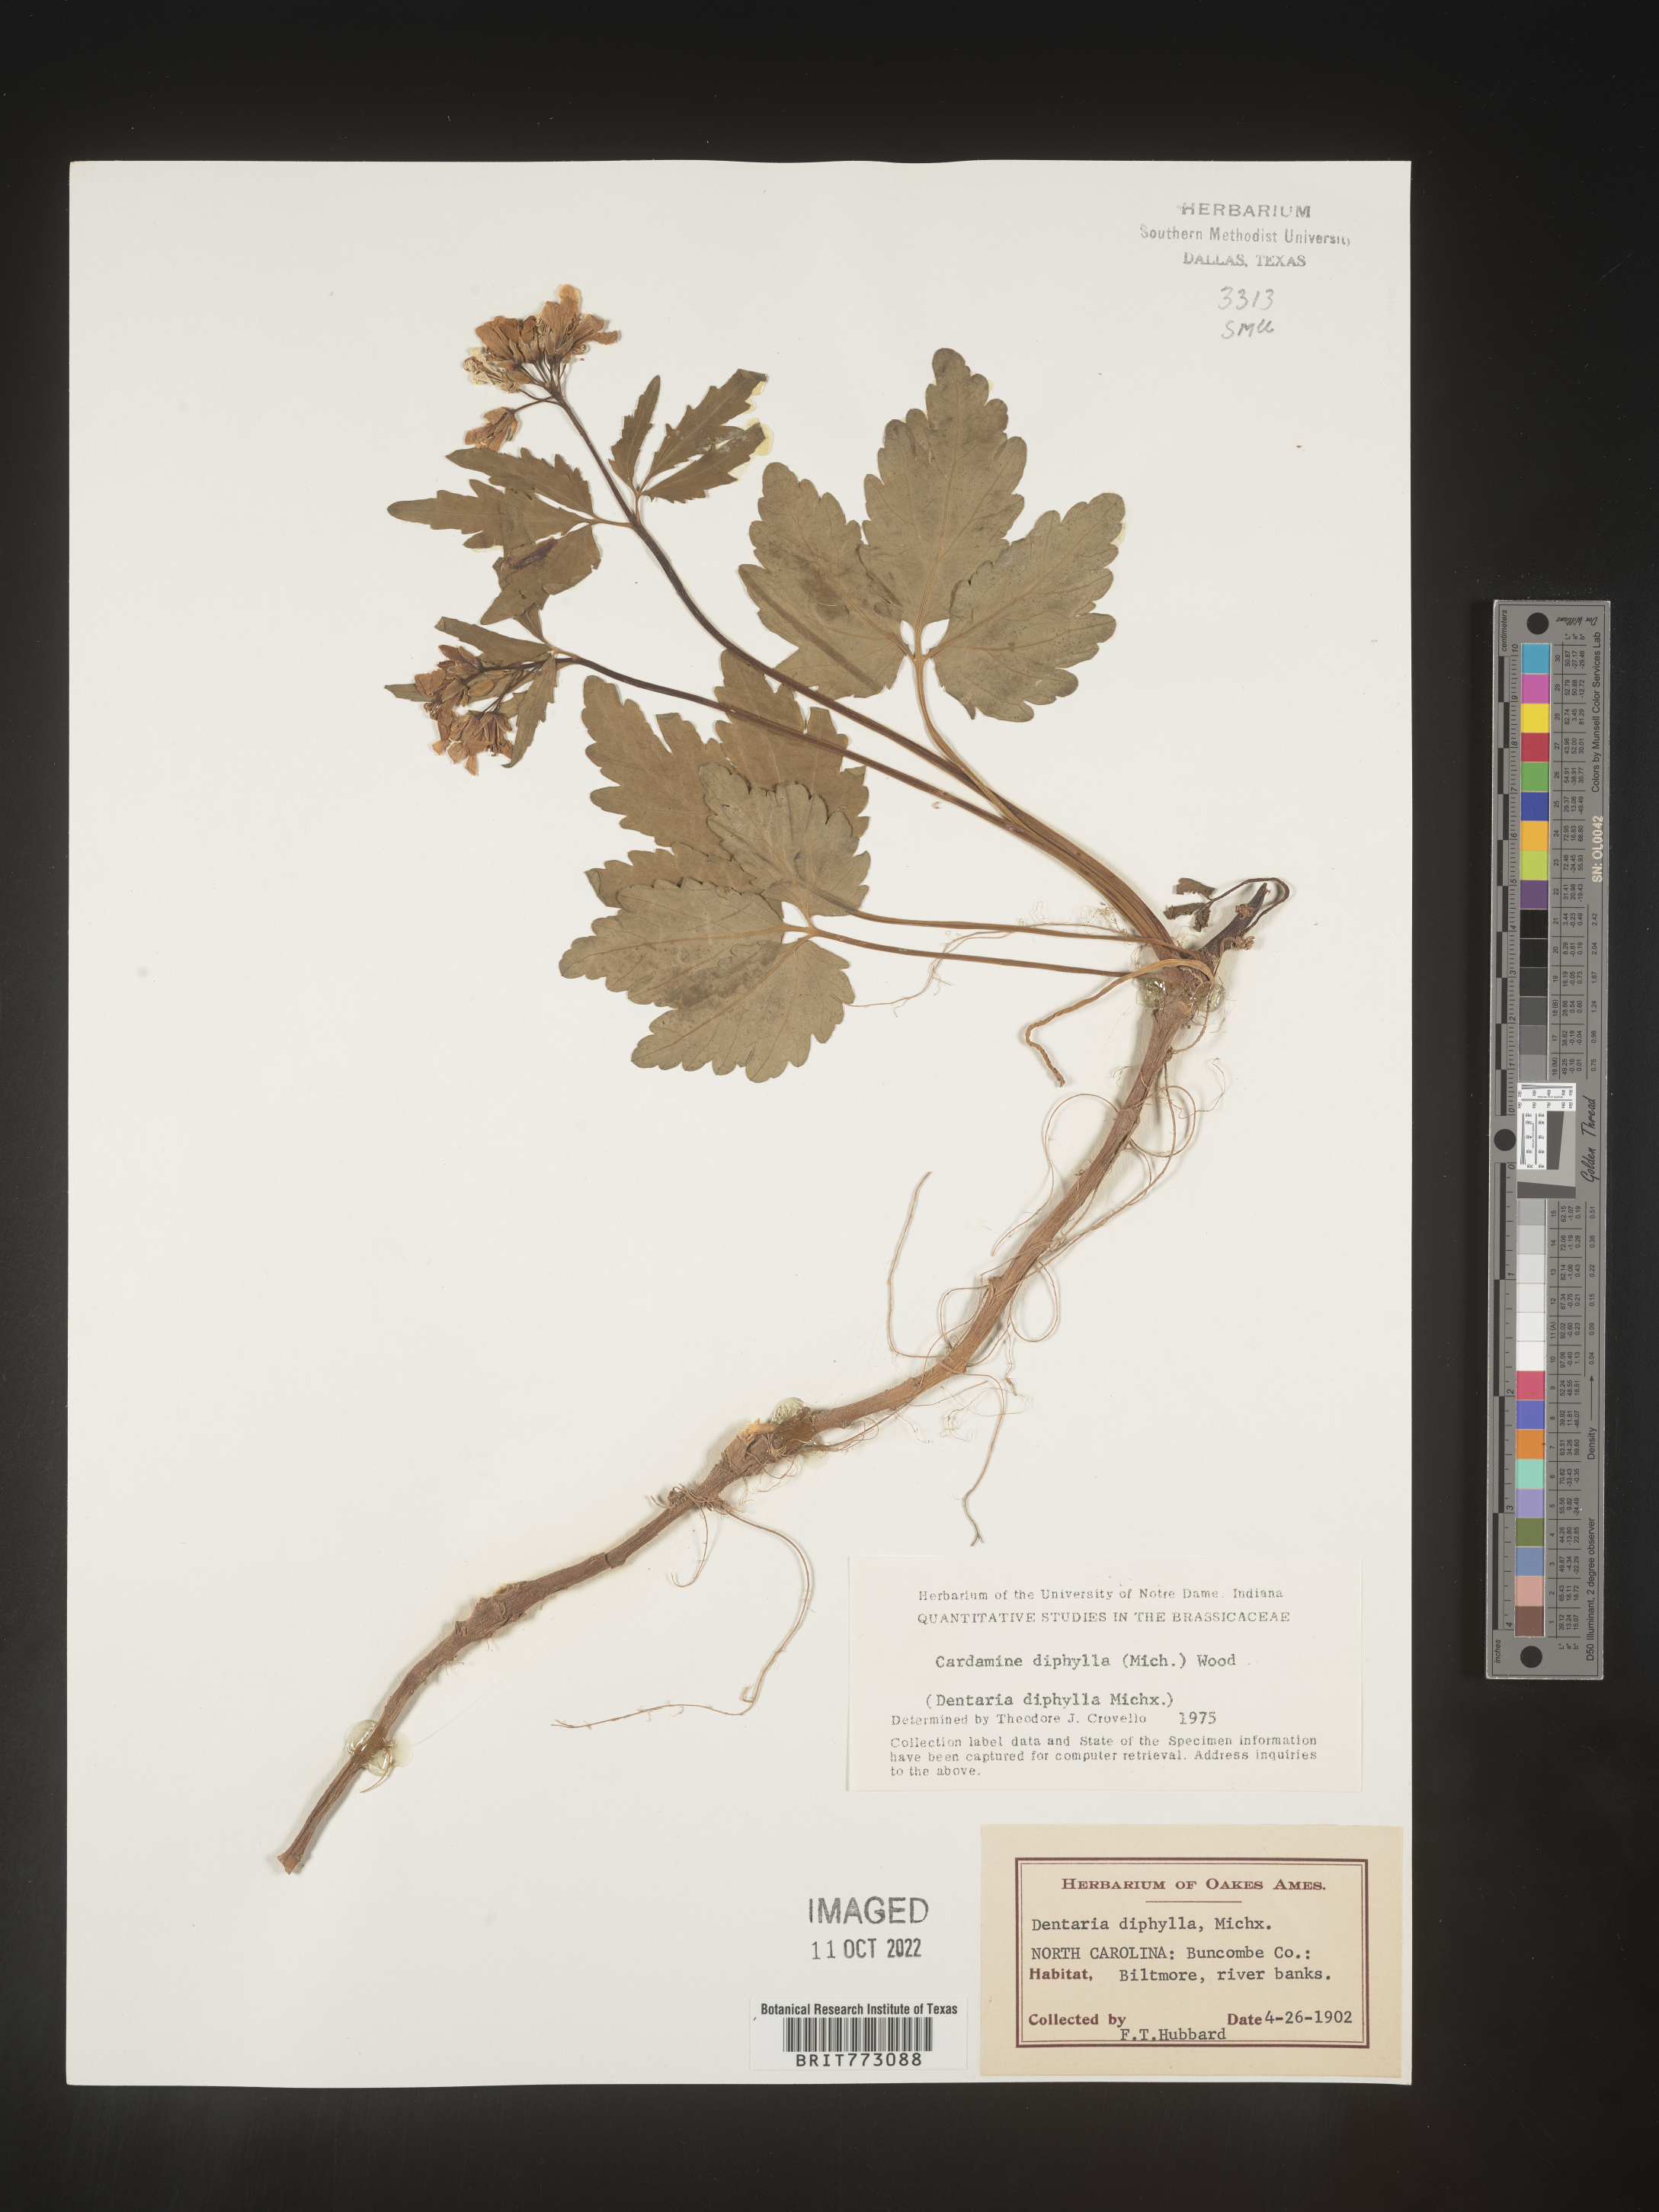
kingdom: Plantae
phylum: Tracheophyta
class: Magnoliopsida
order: Brassicales
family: Brassicaceae
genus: Cardamine
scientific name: Cardamine diphylla
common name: Broad-leaved toothwort
